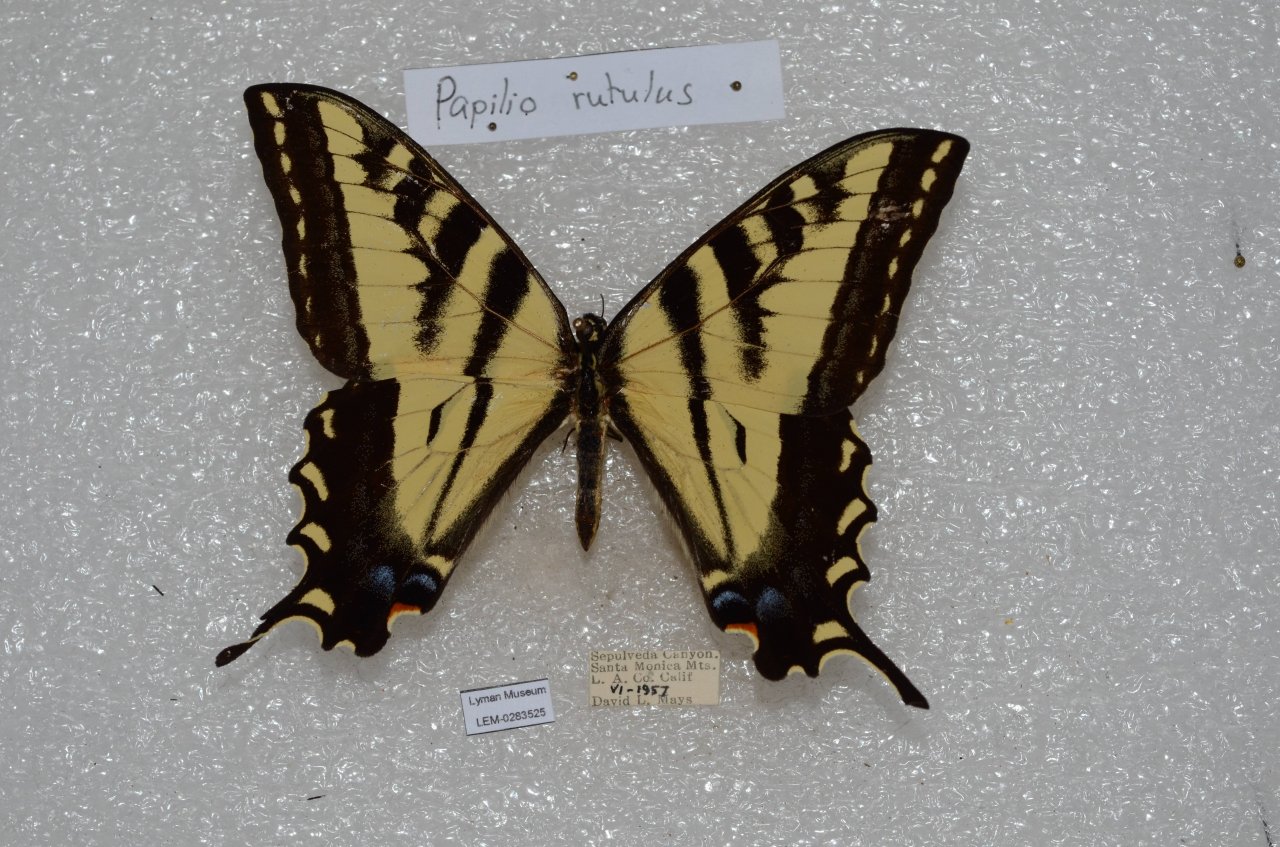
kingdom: Animalia
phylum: Arthropoda
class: Insecta
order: Lepidoptera
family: Papilionidae
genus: Pterourus
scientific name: Pterourus rutulus
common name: Western Tiger Swallowtail
